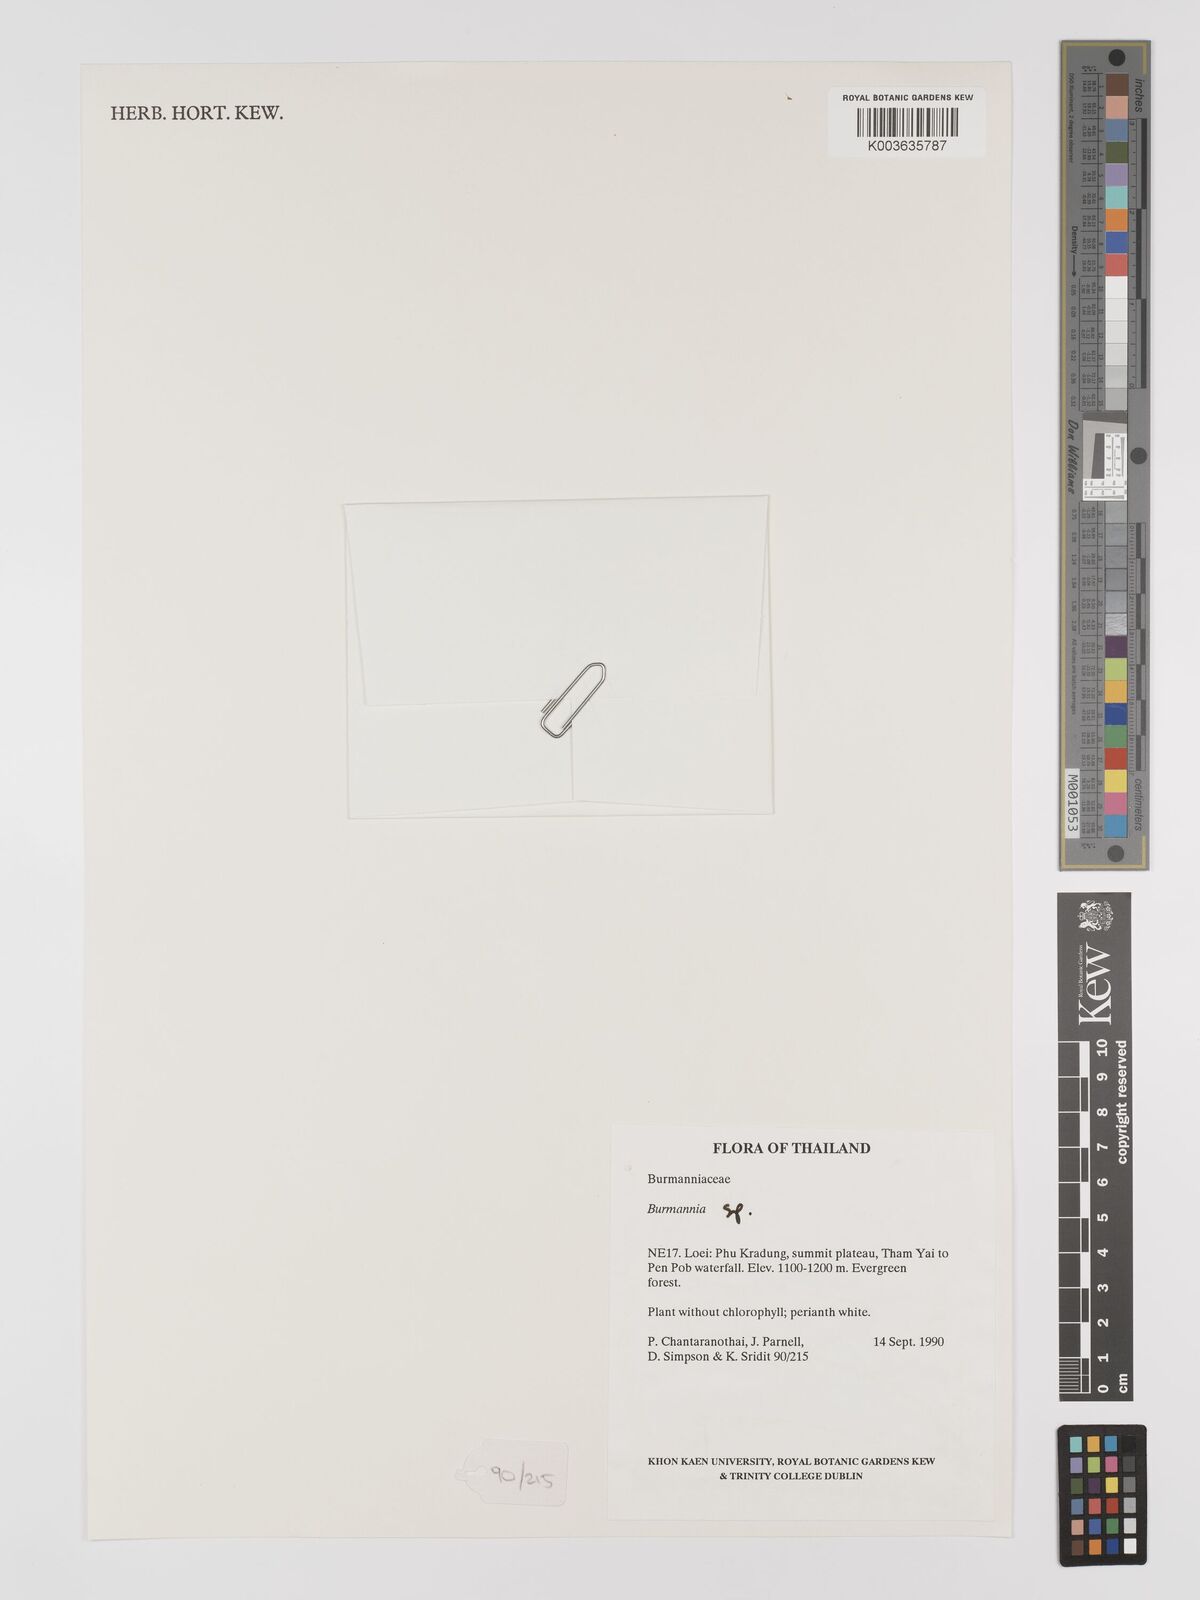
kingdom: Plantae
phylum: Tracheophyta
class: Liliopsida
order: Dioscoreales
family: Burmanniaceae
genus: Burmannia
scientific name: Burmannia
